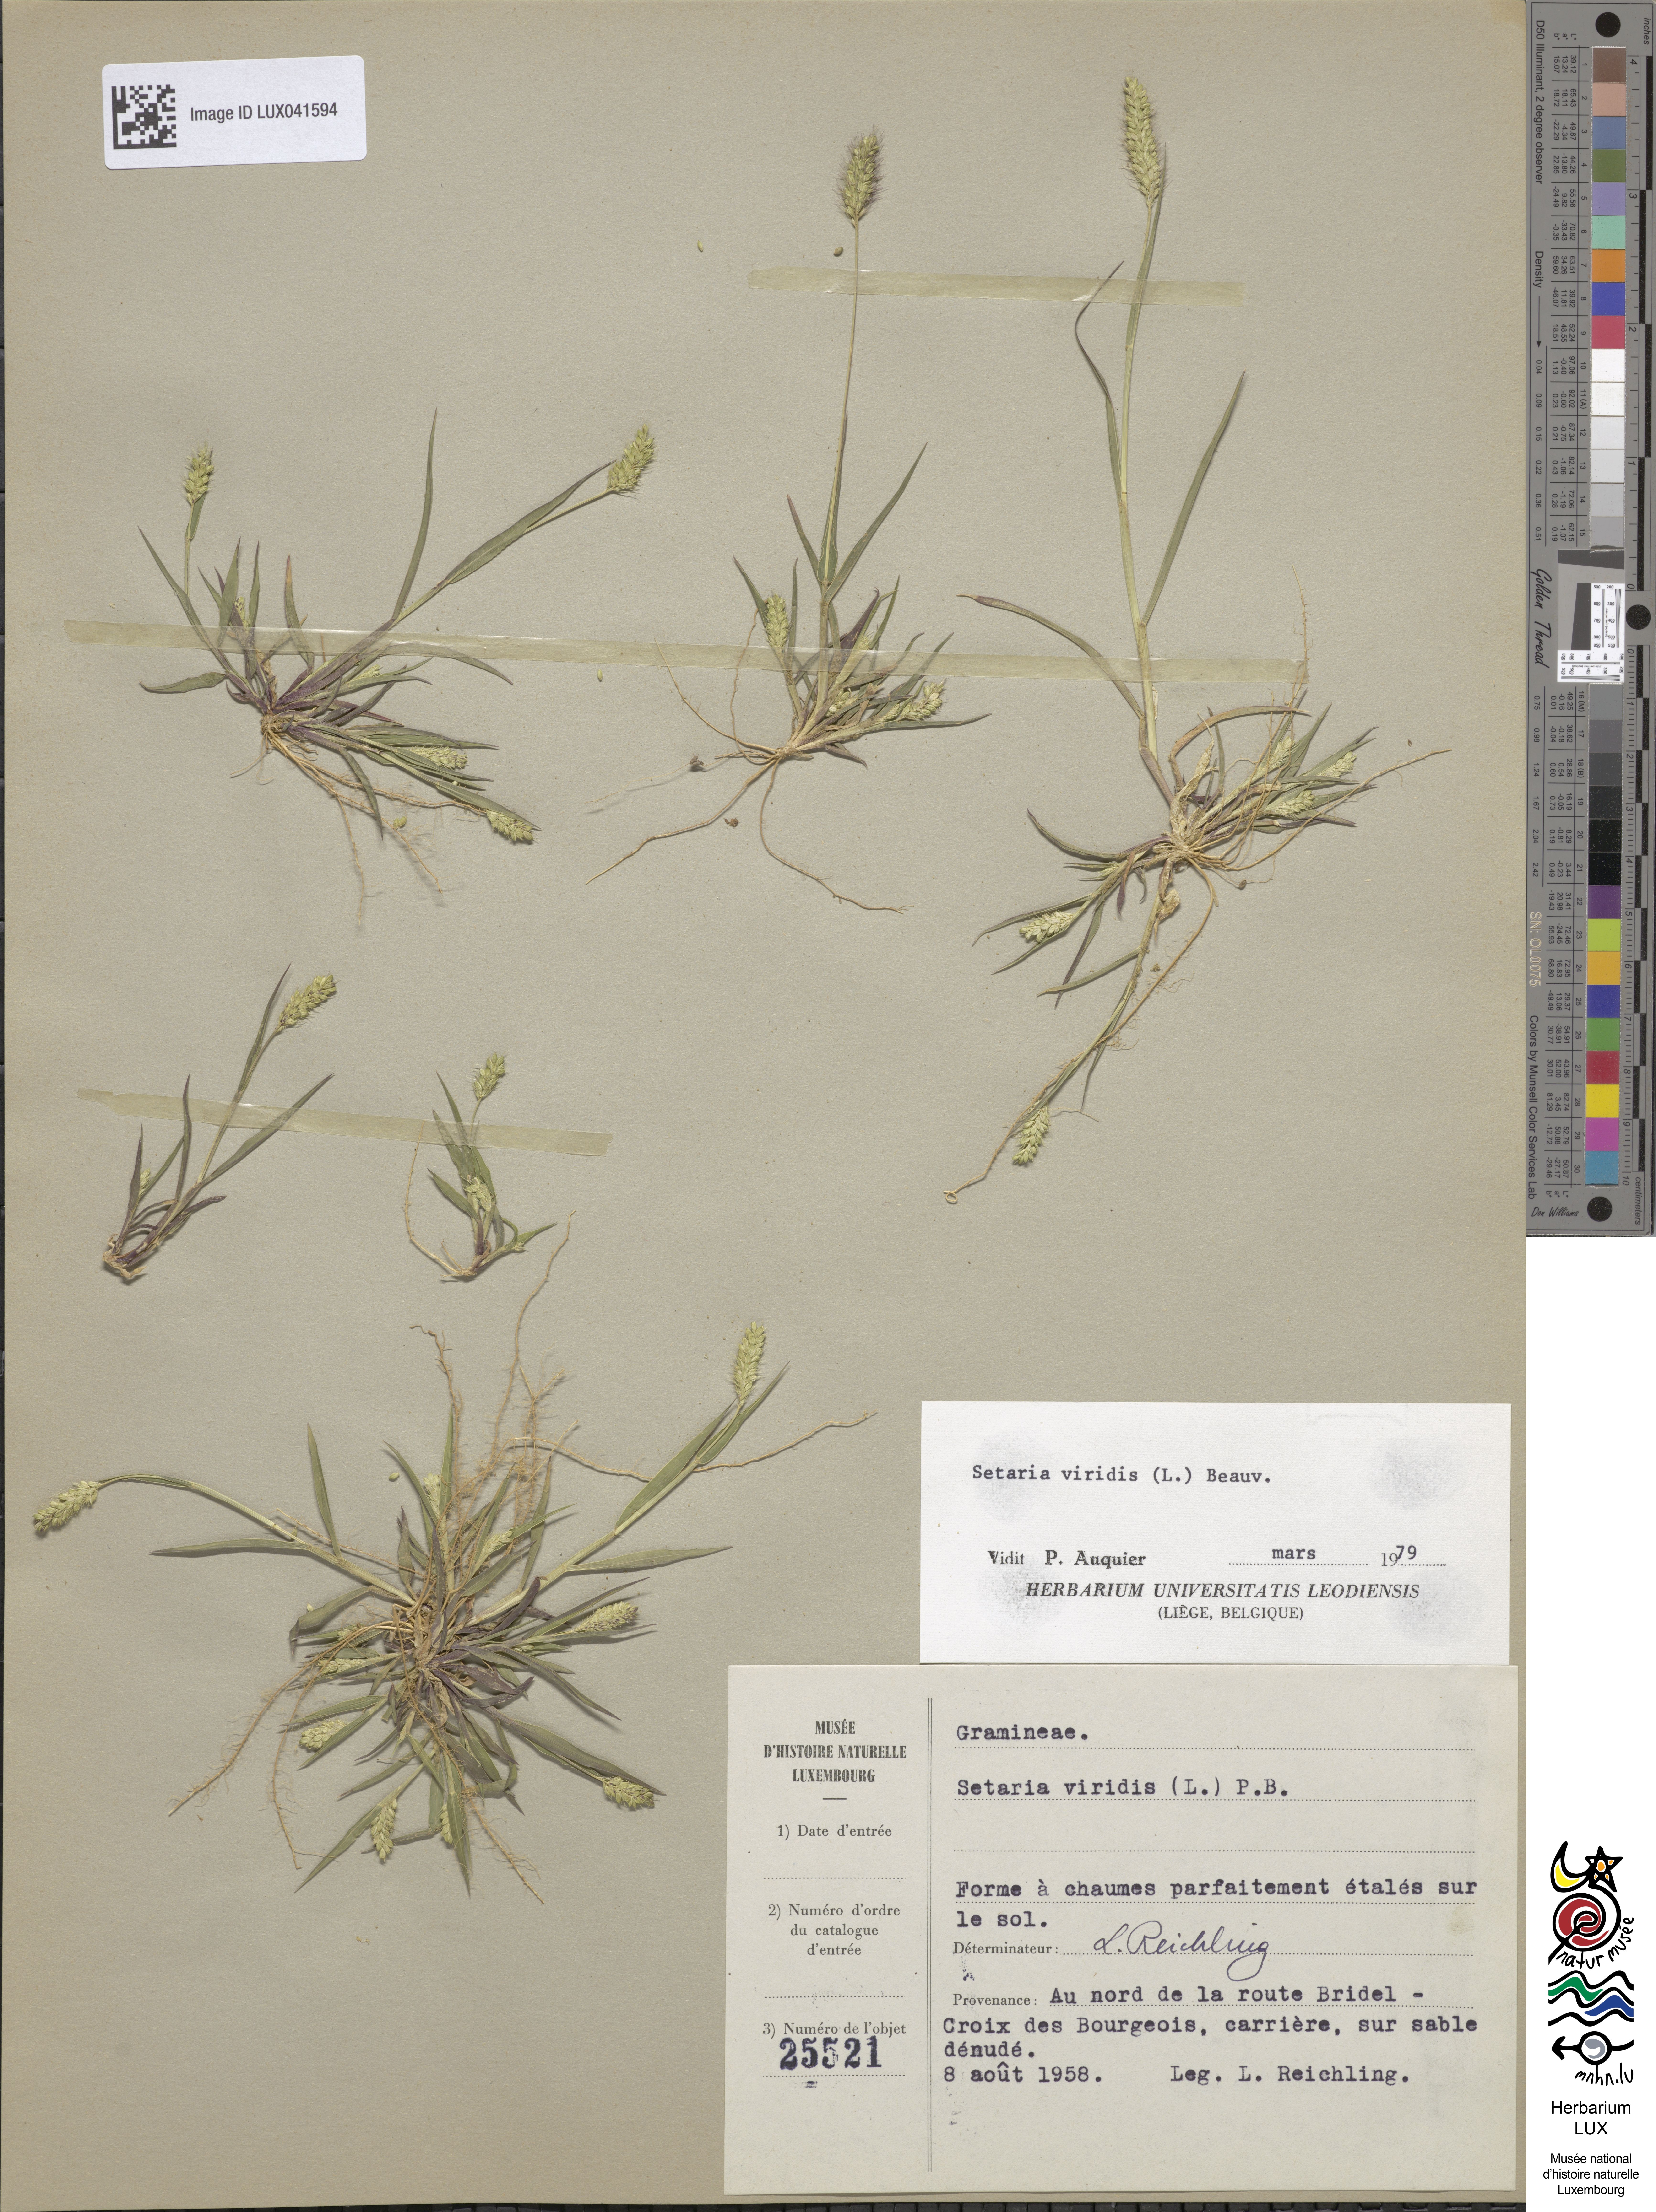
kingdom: Plantae
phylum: Tracheophyta
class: Liliopsida
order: Poales
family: Poaceae
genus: Setaria
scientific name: Setaria viridis
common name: Green bristlegrass
